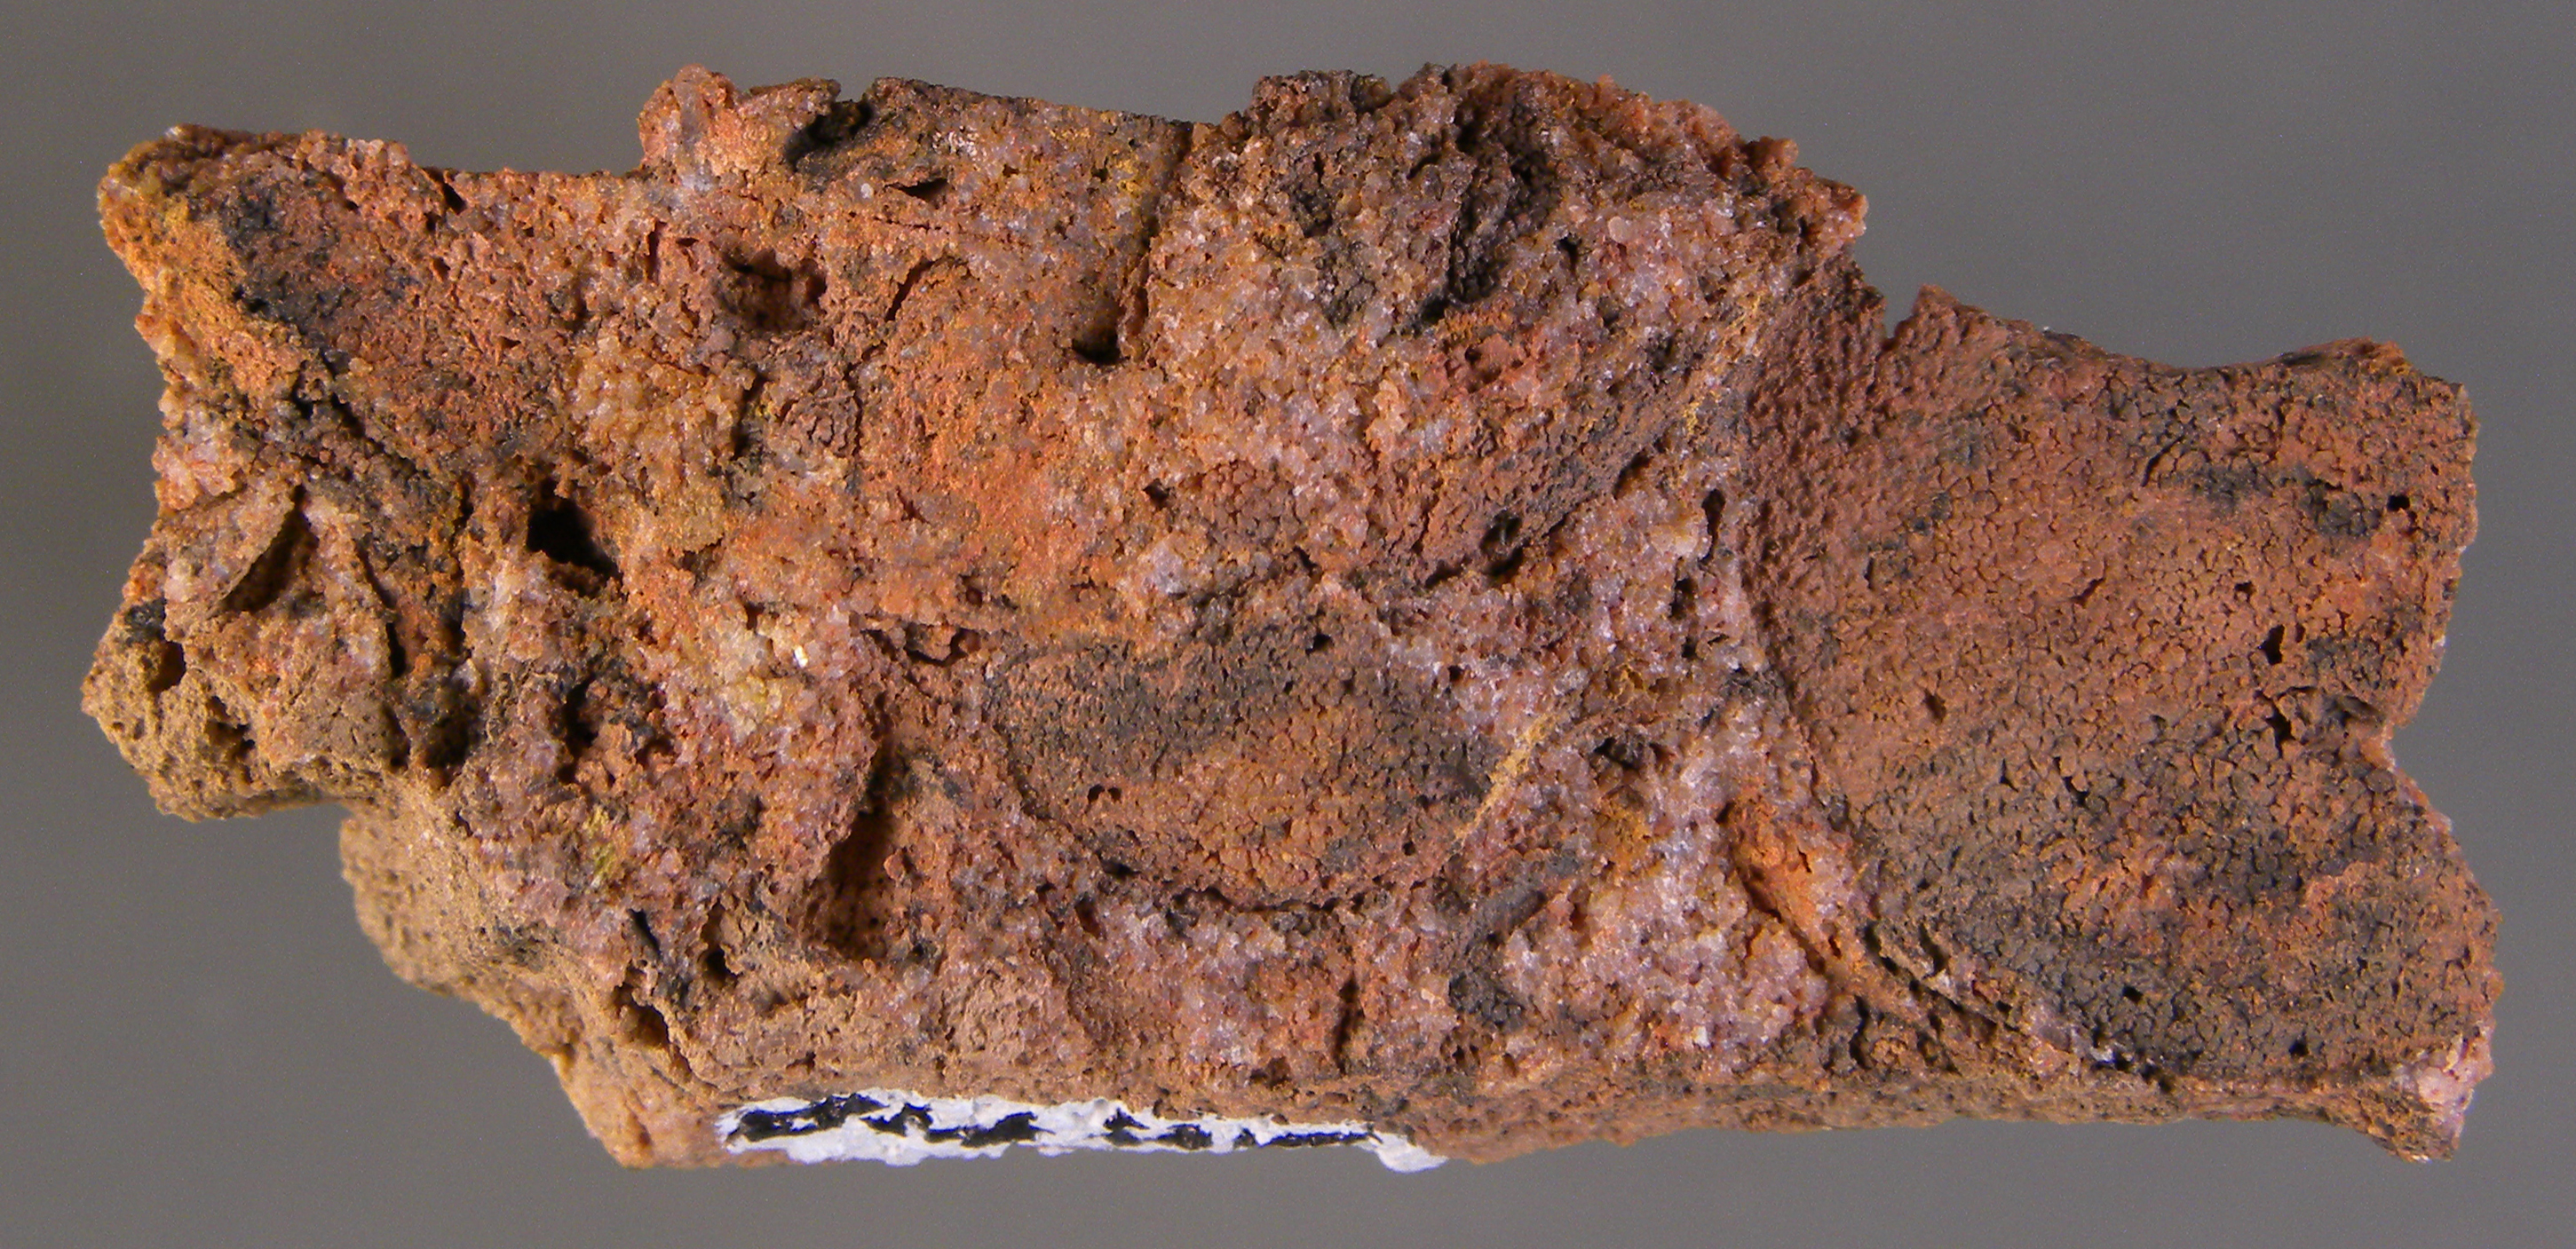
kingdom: Animalia
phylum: Mollusca
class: Bivalvia
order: Nuculanida
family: Nuculanidae
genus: Phestia
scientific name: Phestia
